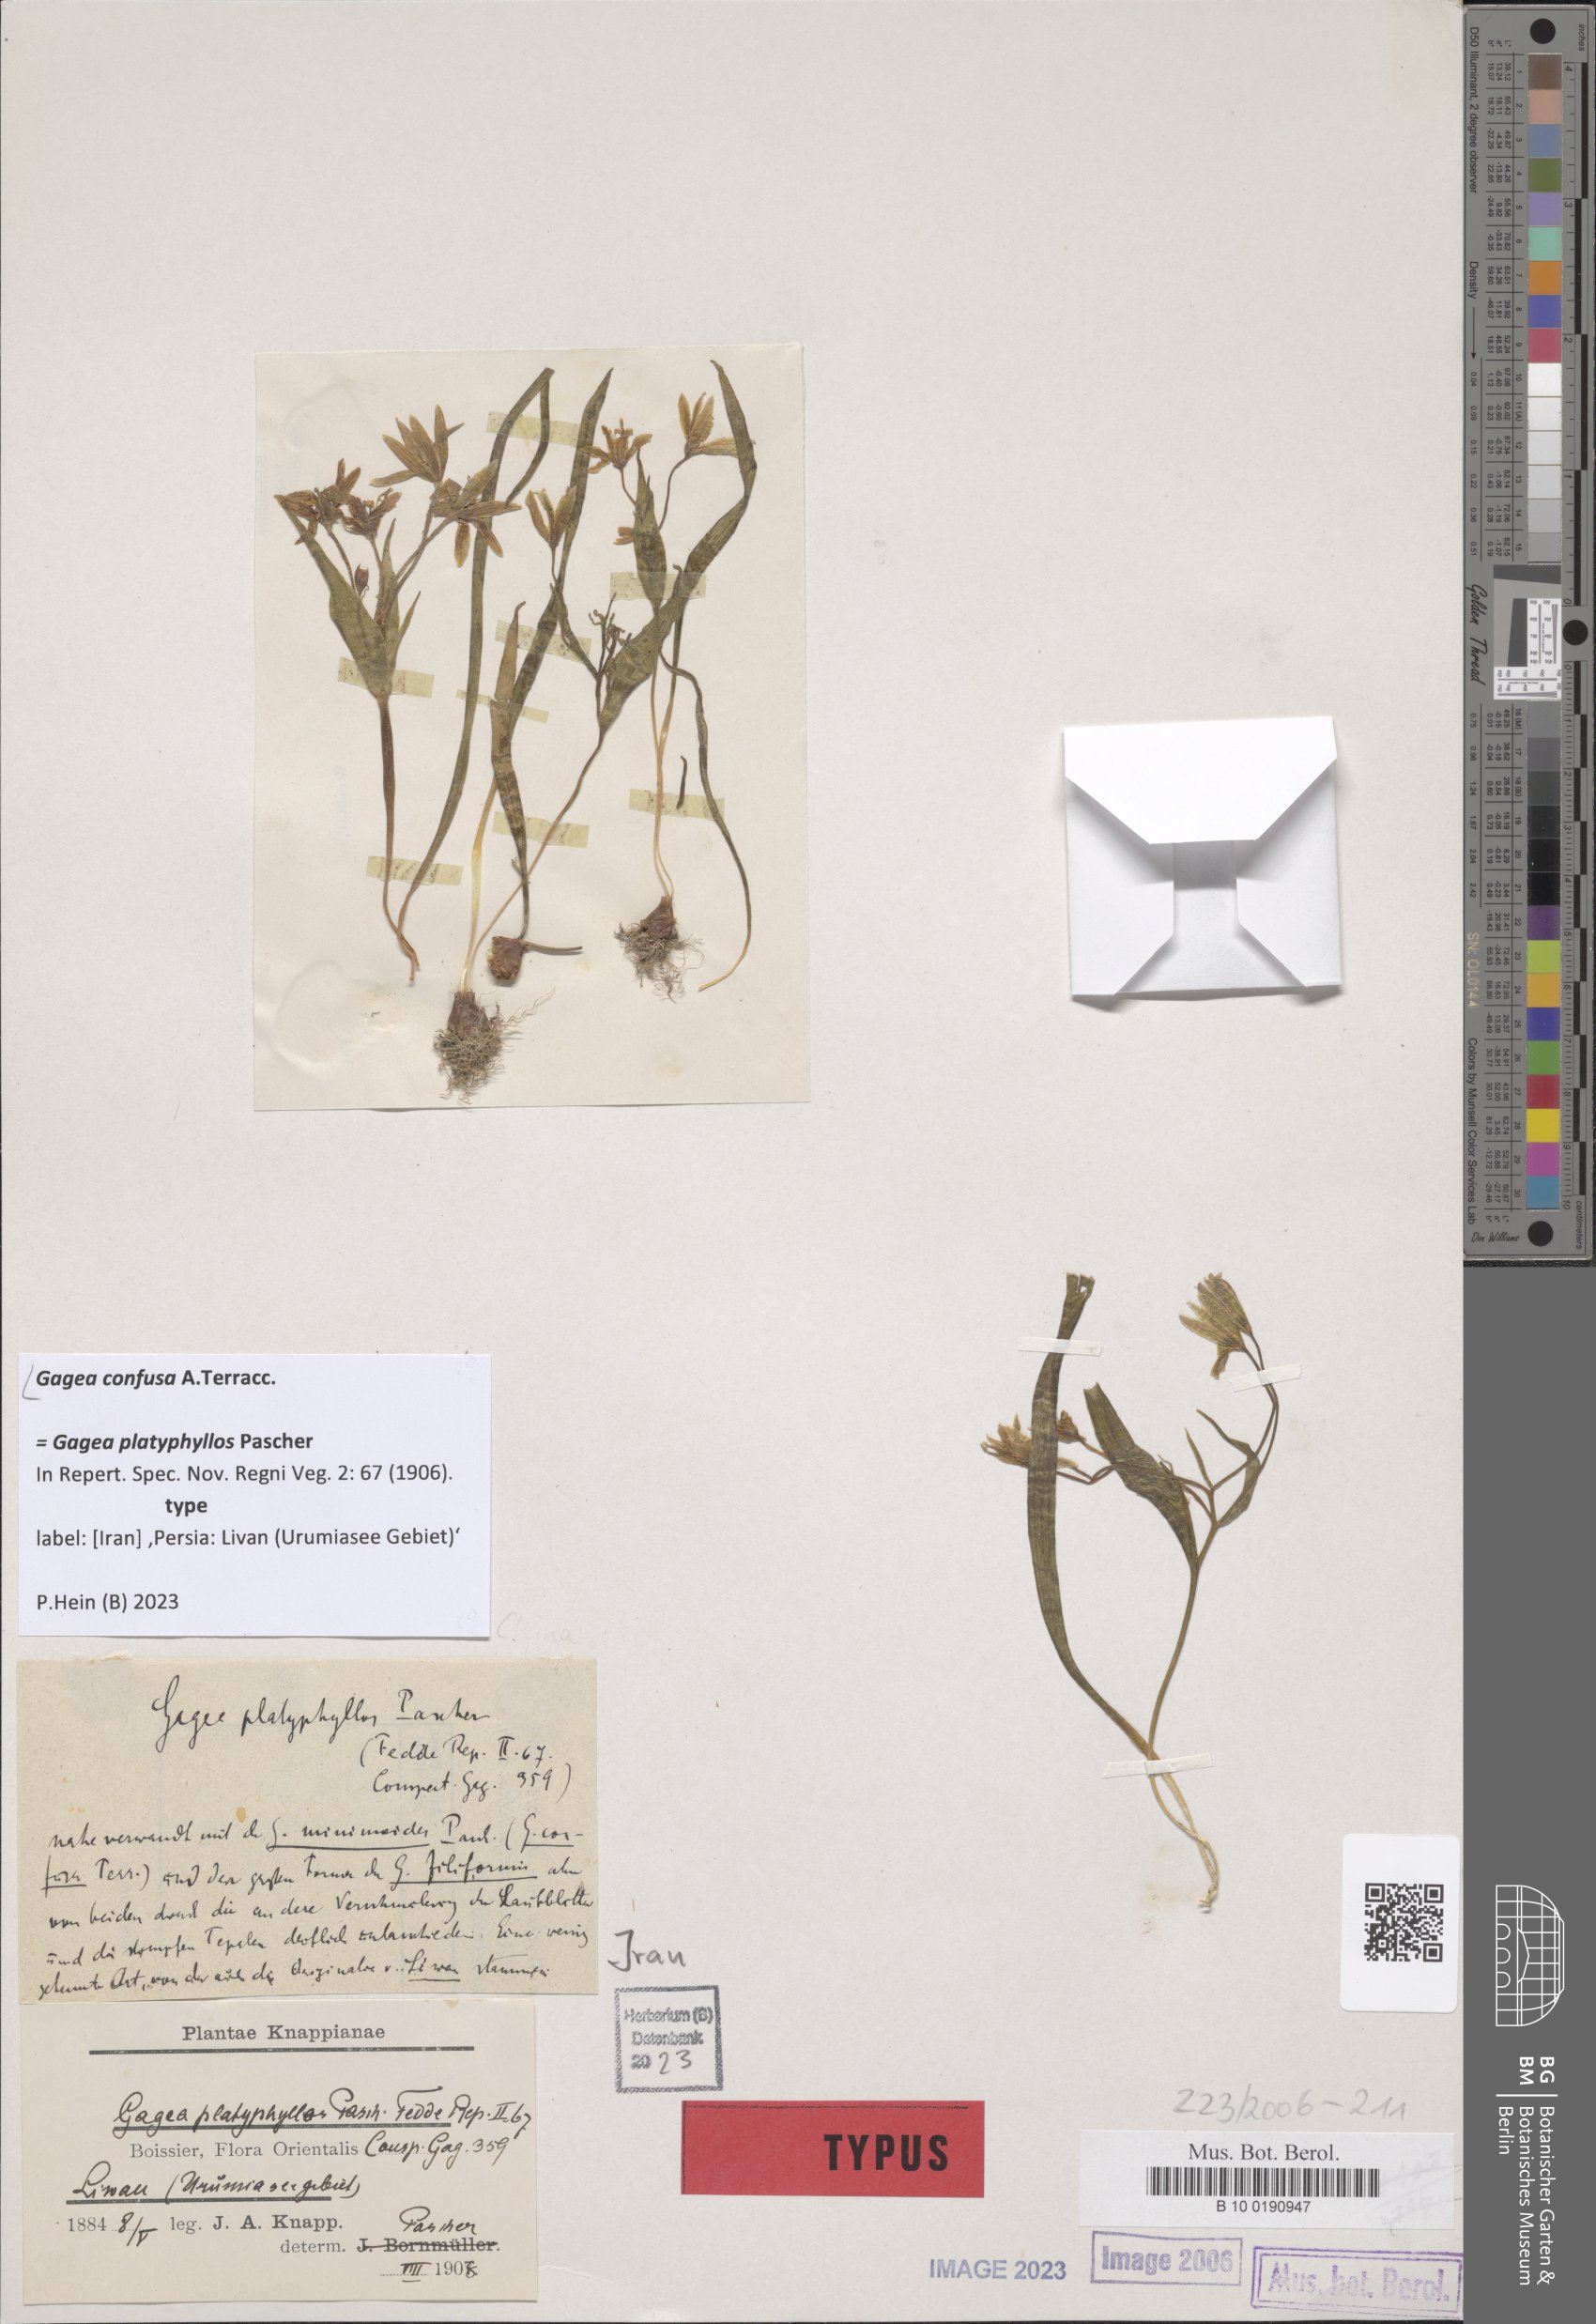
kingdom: Plantae
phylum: Tracheophyta
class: Liliopsida
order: Liliales
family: Liliaceae
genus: Gagea
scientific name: Gagea confusa
